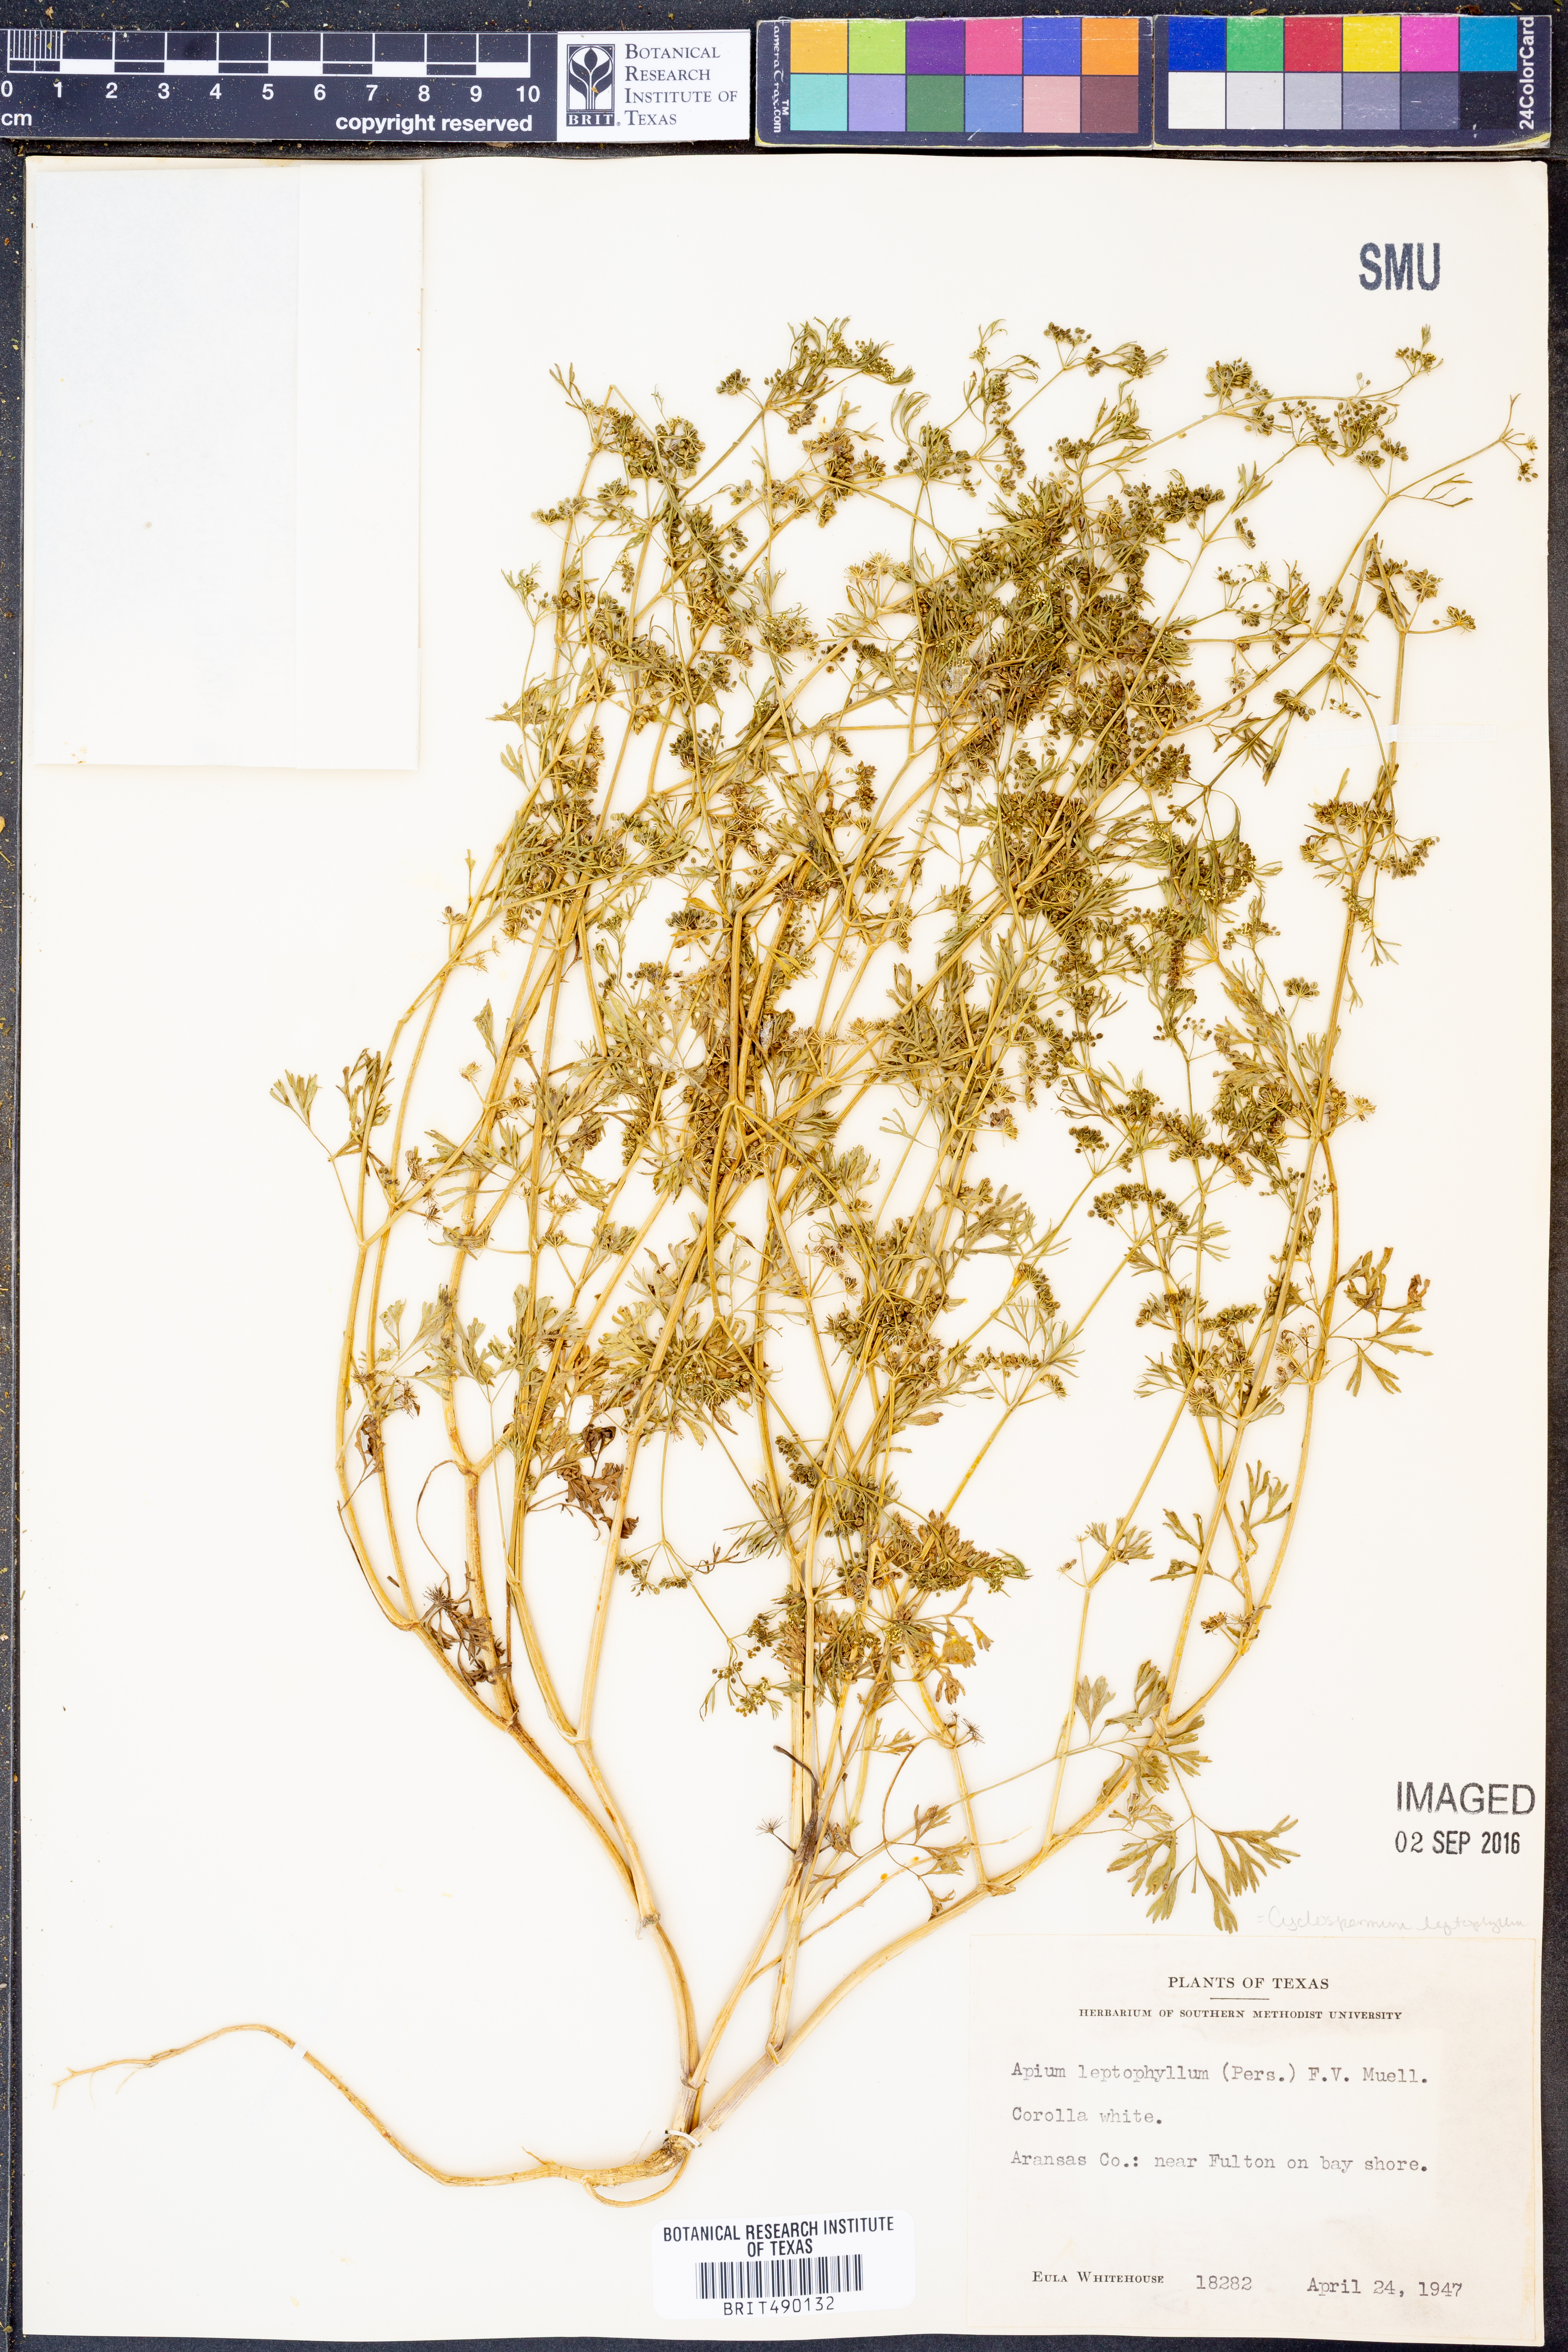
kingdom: Plantae
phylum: Tracheophyta
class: Magnoliopsida
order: Apiales
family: Apiaceae
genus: Cyclospermum
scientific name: Cyclospermum leptophyllum
